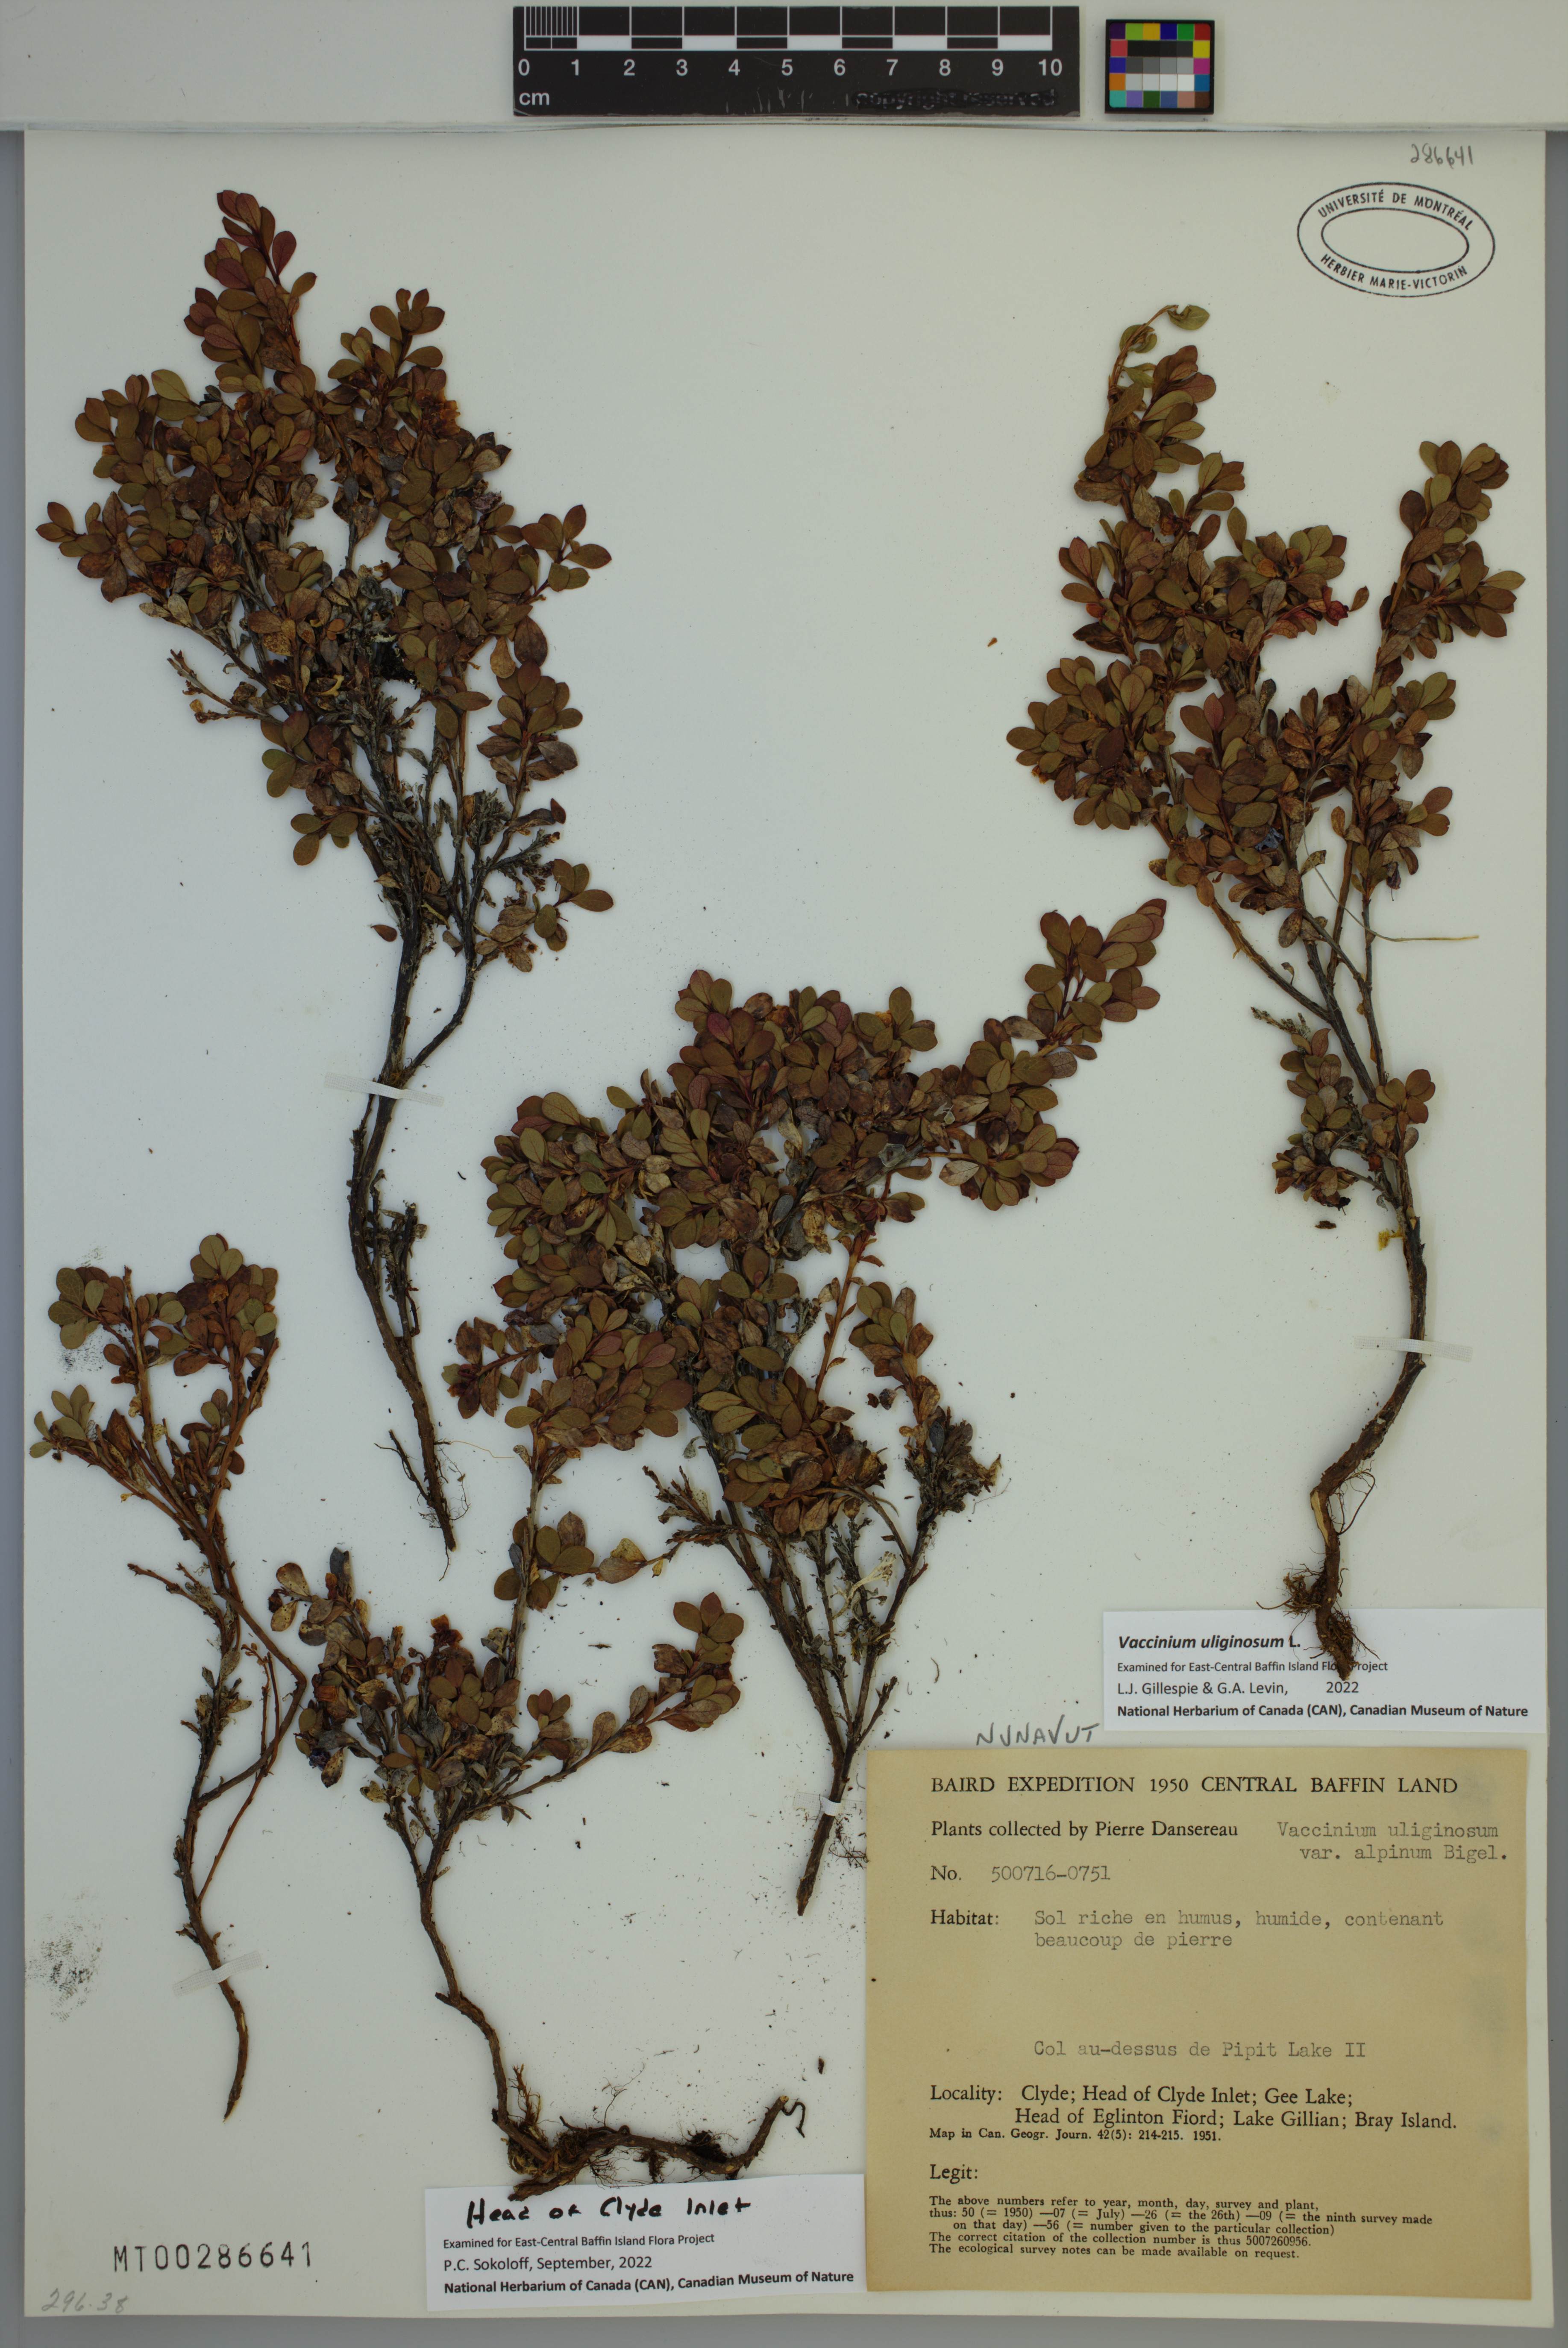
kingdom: Plantae
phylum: Tracheophyta
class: Magnoliopsida
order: Ericales
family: Ericaceae
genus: Vaccinium
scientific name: Vaccinium uliginosum
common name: Bog bilberry
